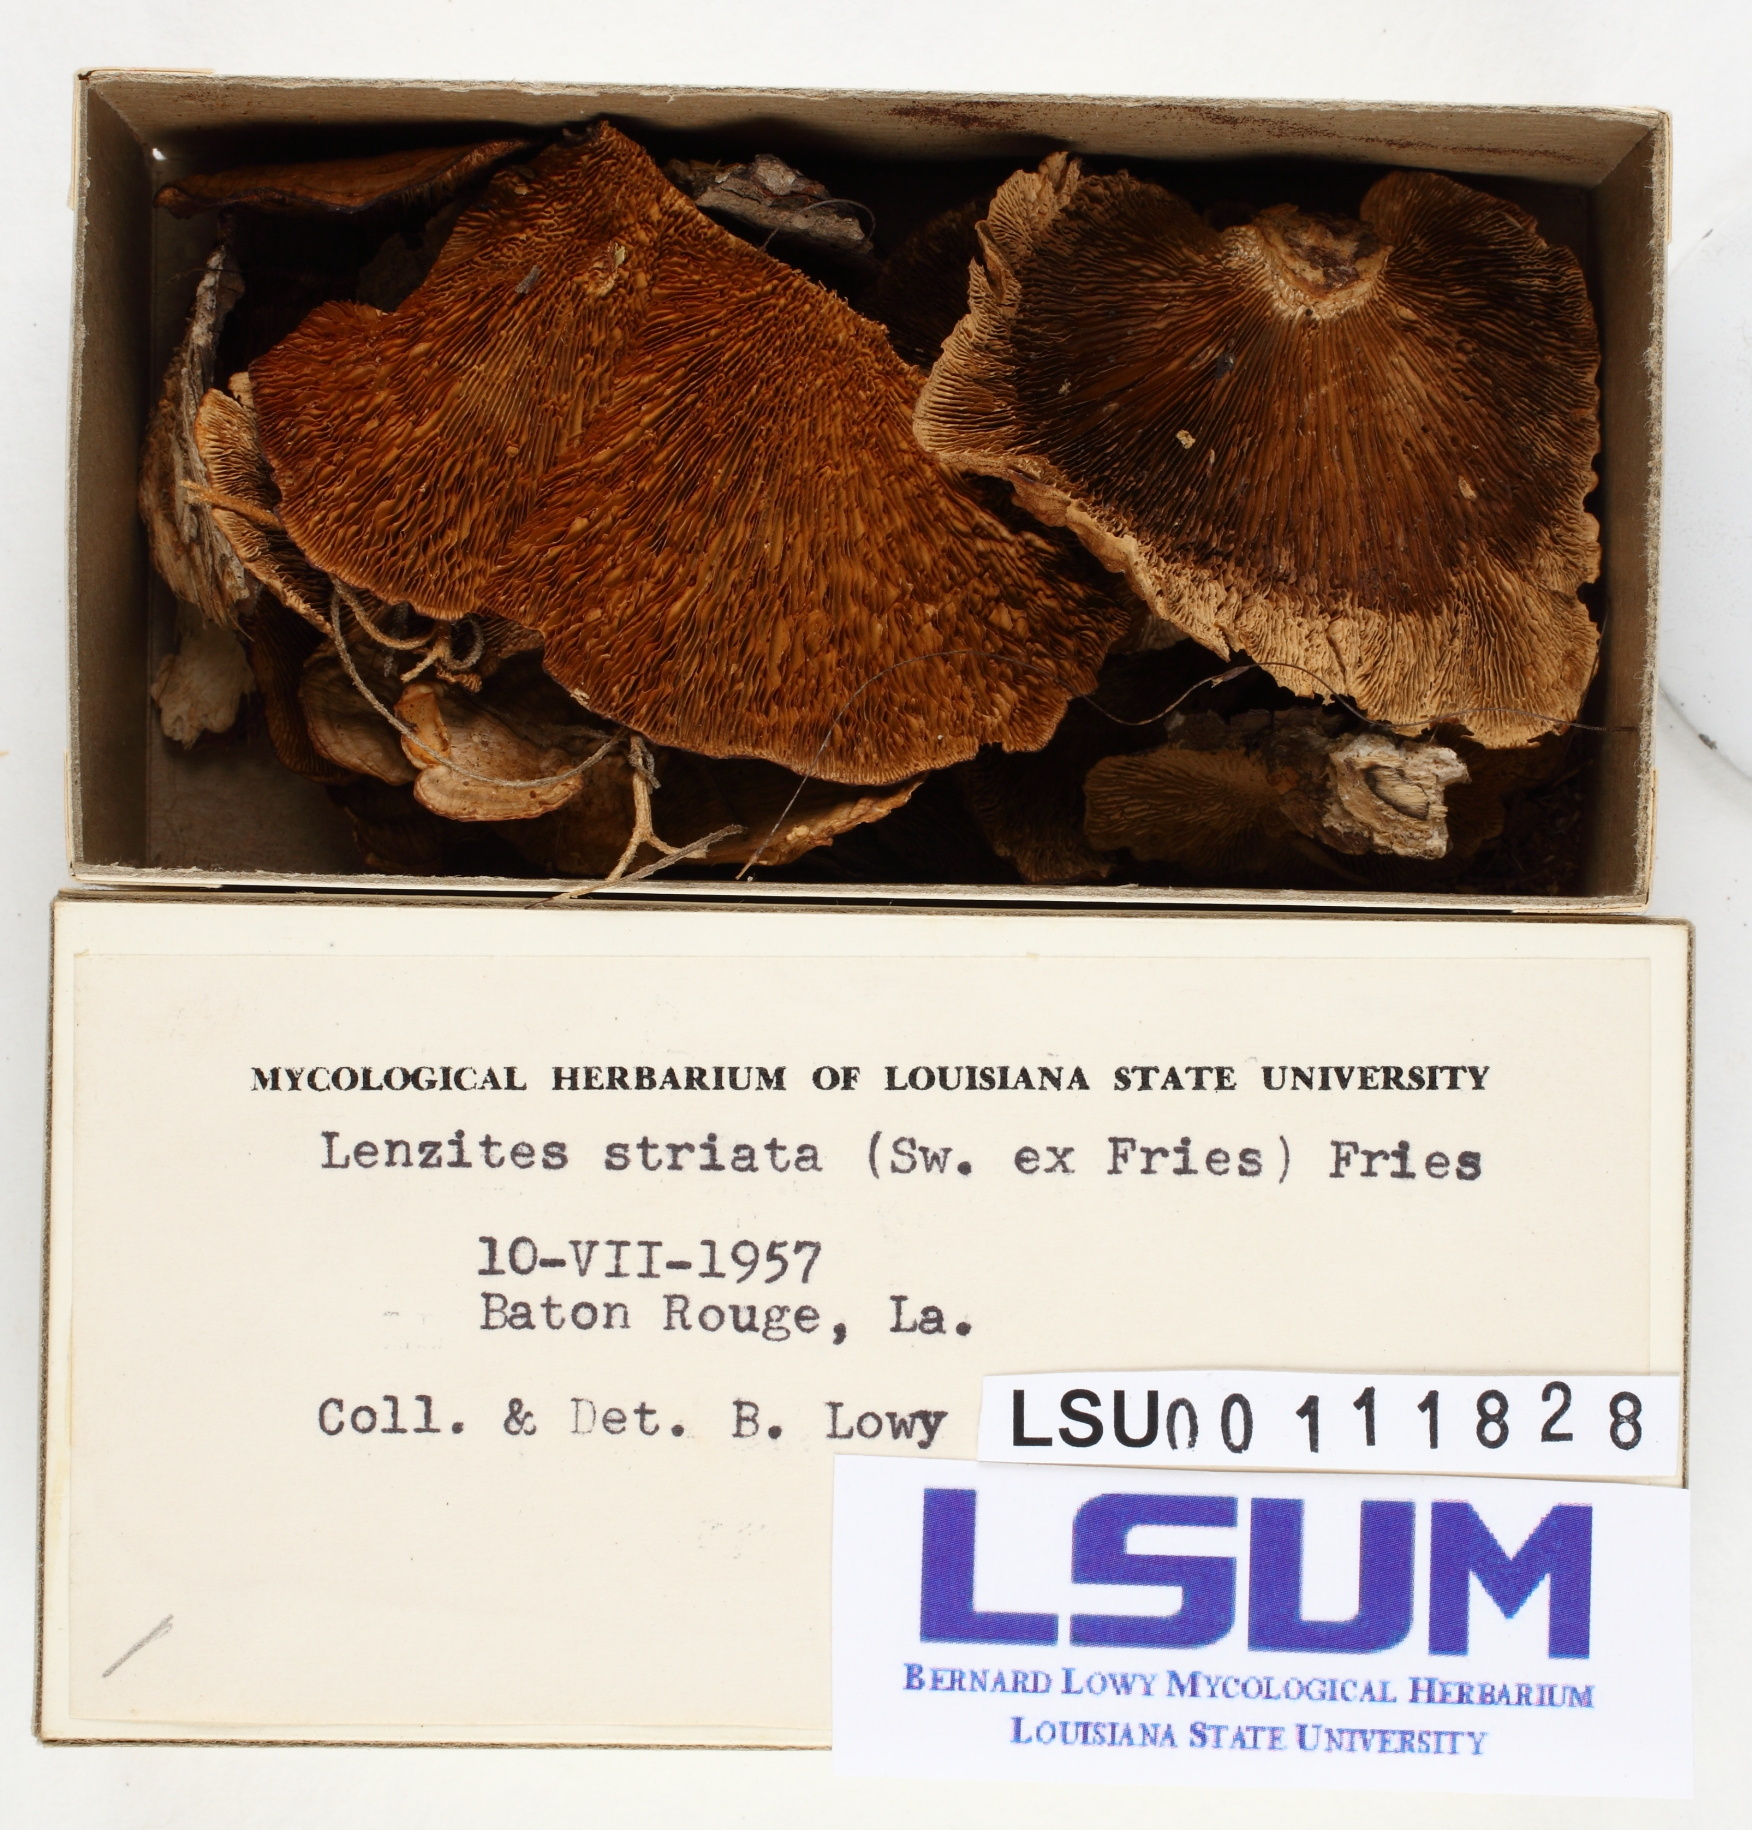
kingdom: Fungi
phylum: Basidiomycota
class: Agaricomycetes
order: Gloeophyllales
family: Gloeophyllaceae
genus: Gloeophyllum
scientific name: Gloeophyllum striatum
